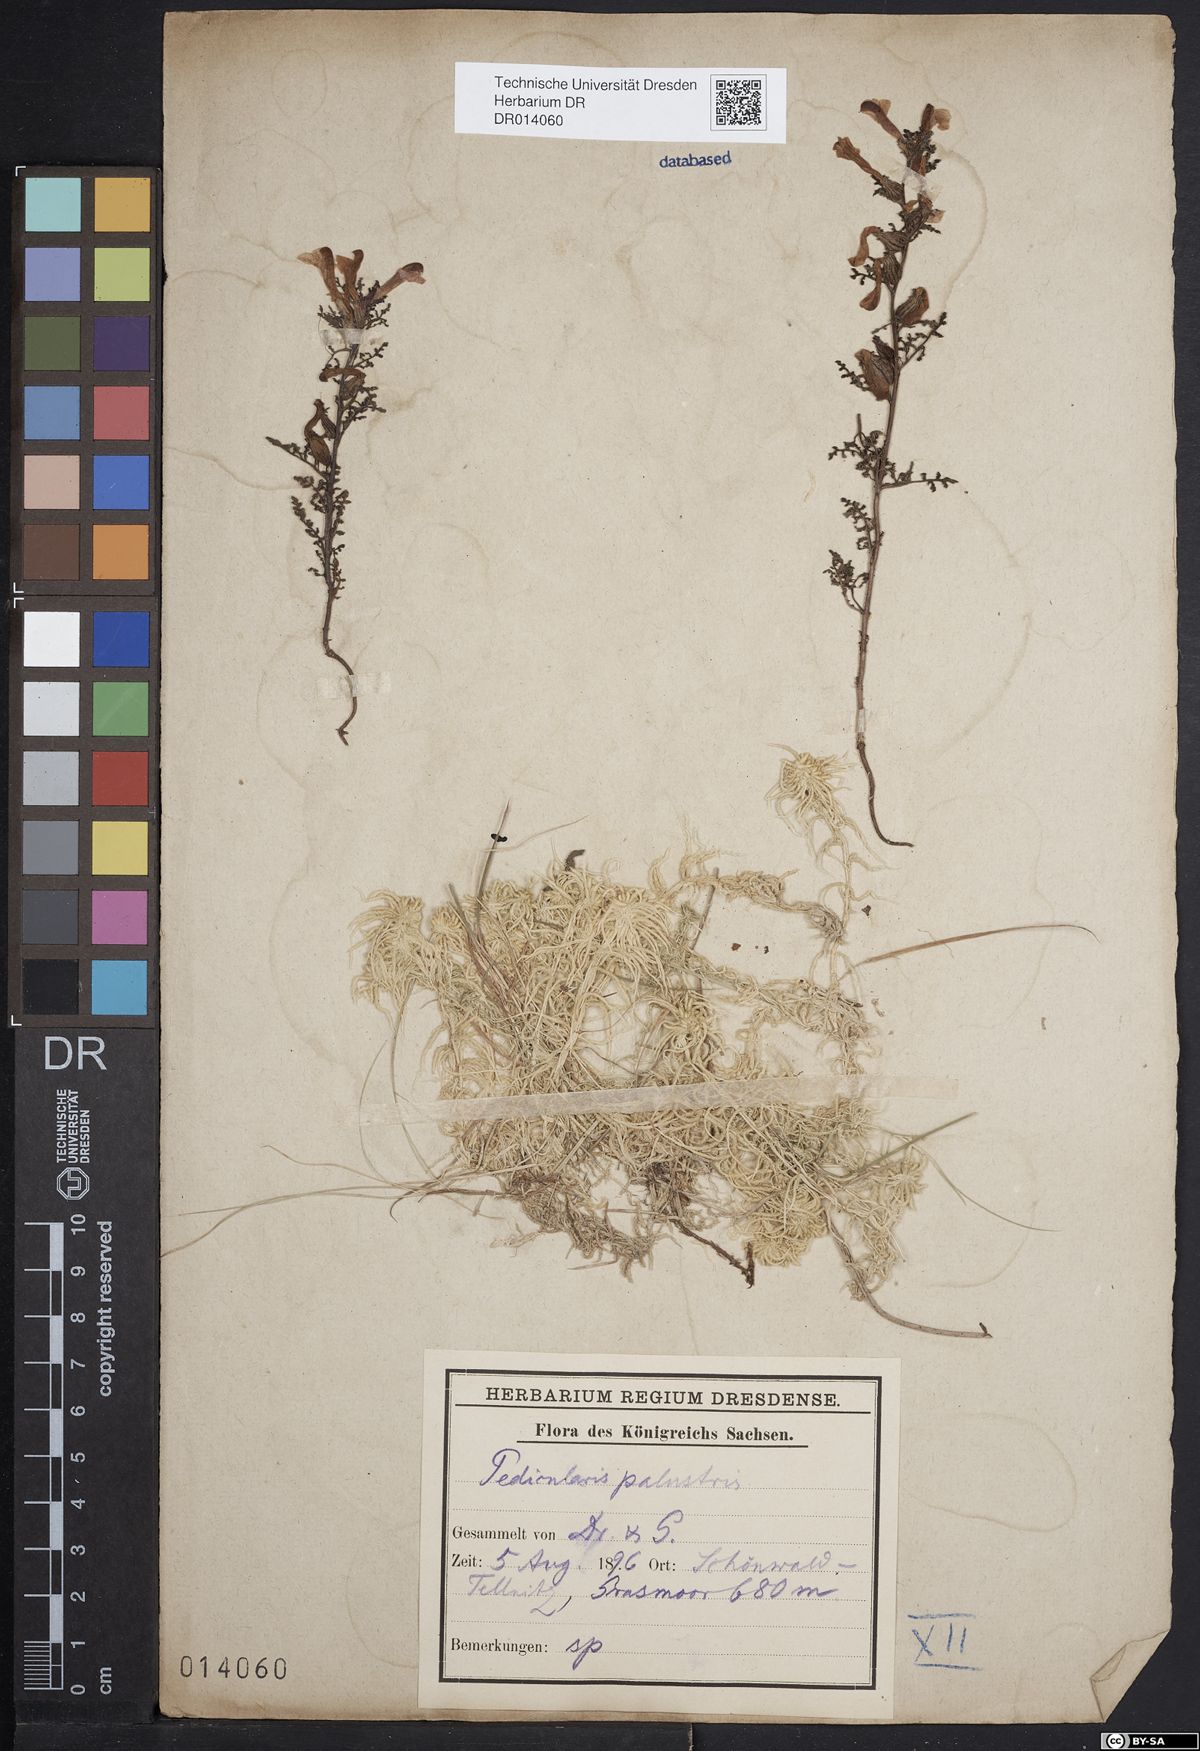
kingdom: Plantae
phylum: Tracheophyta
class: Magnoliopsida
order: Lamiales
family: Orobanchaceae
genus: Pedicularis
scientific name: Pedicularis palustris
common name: Marsh lousewort
